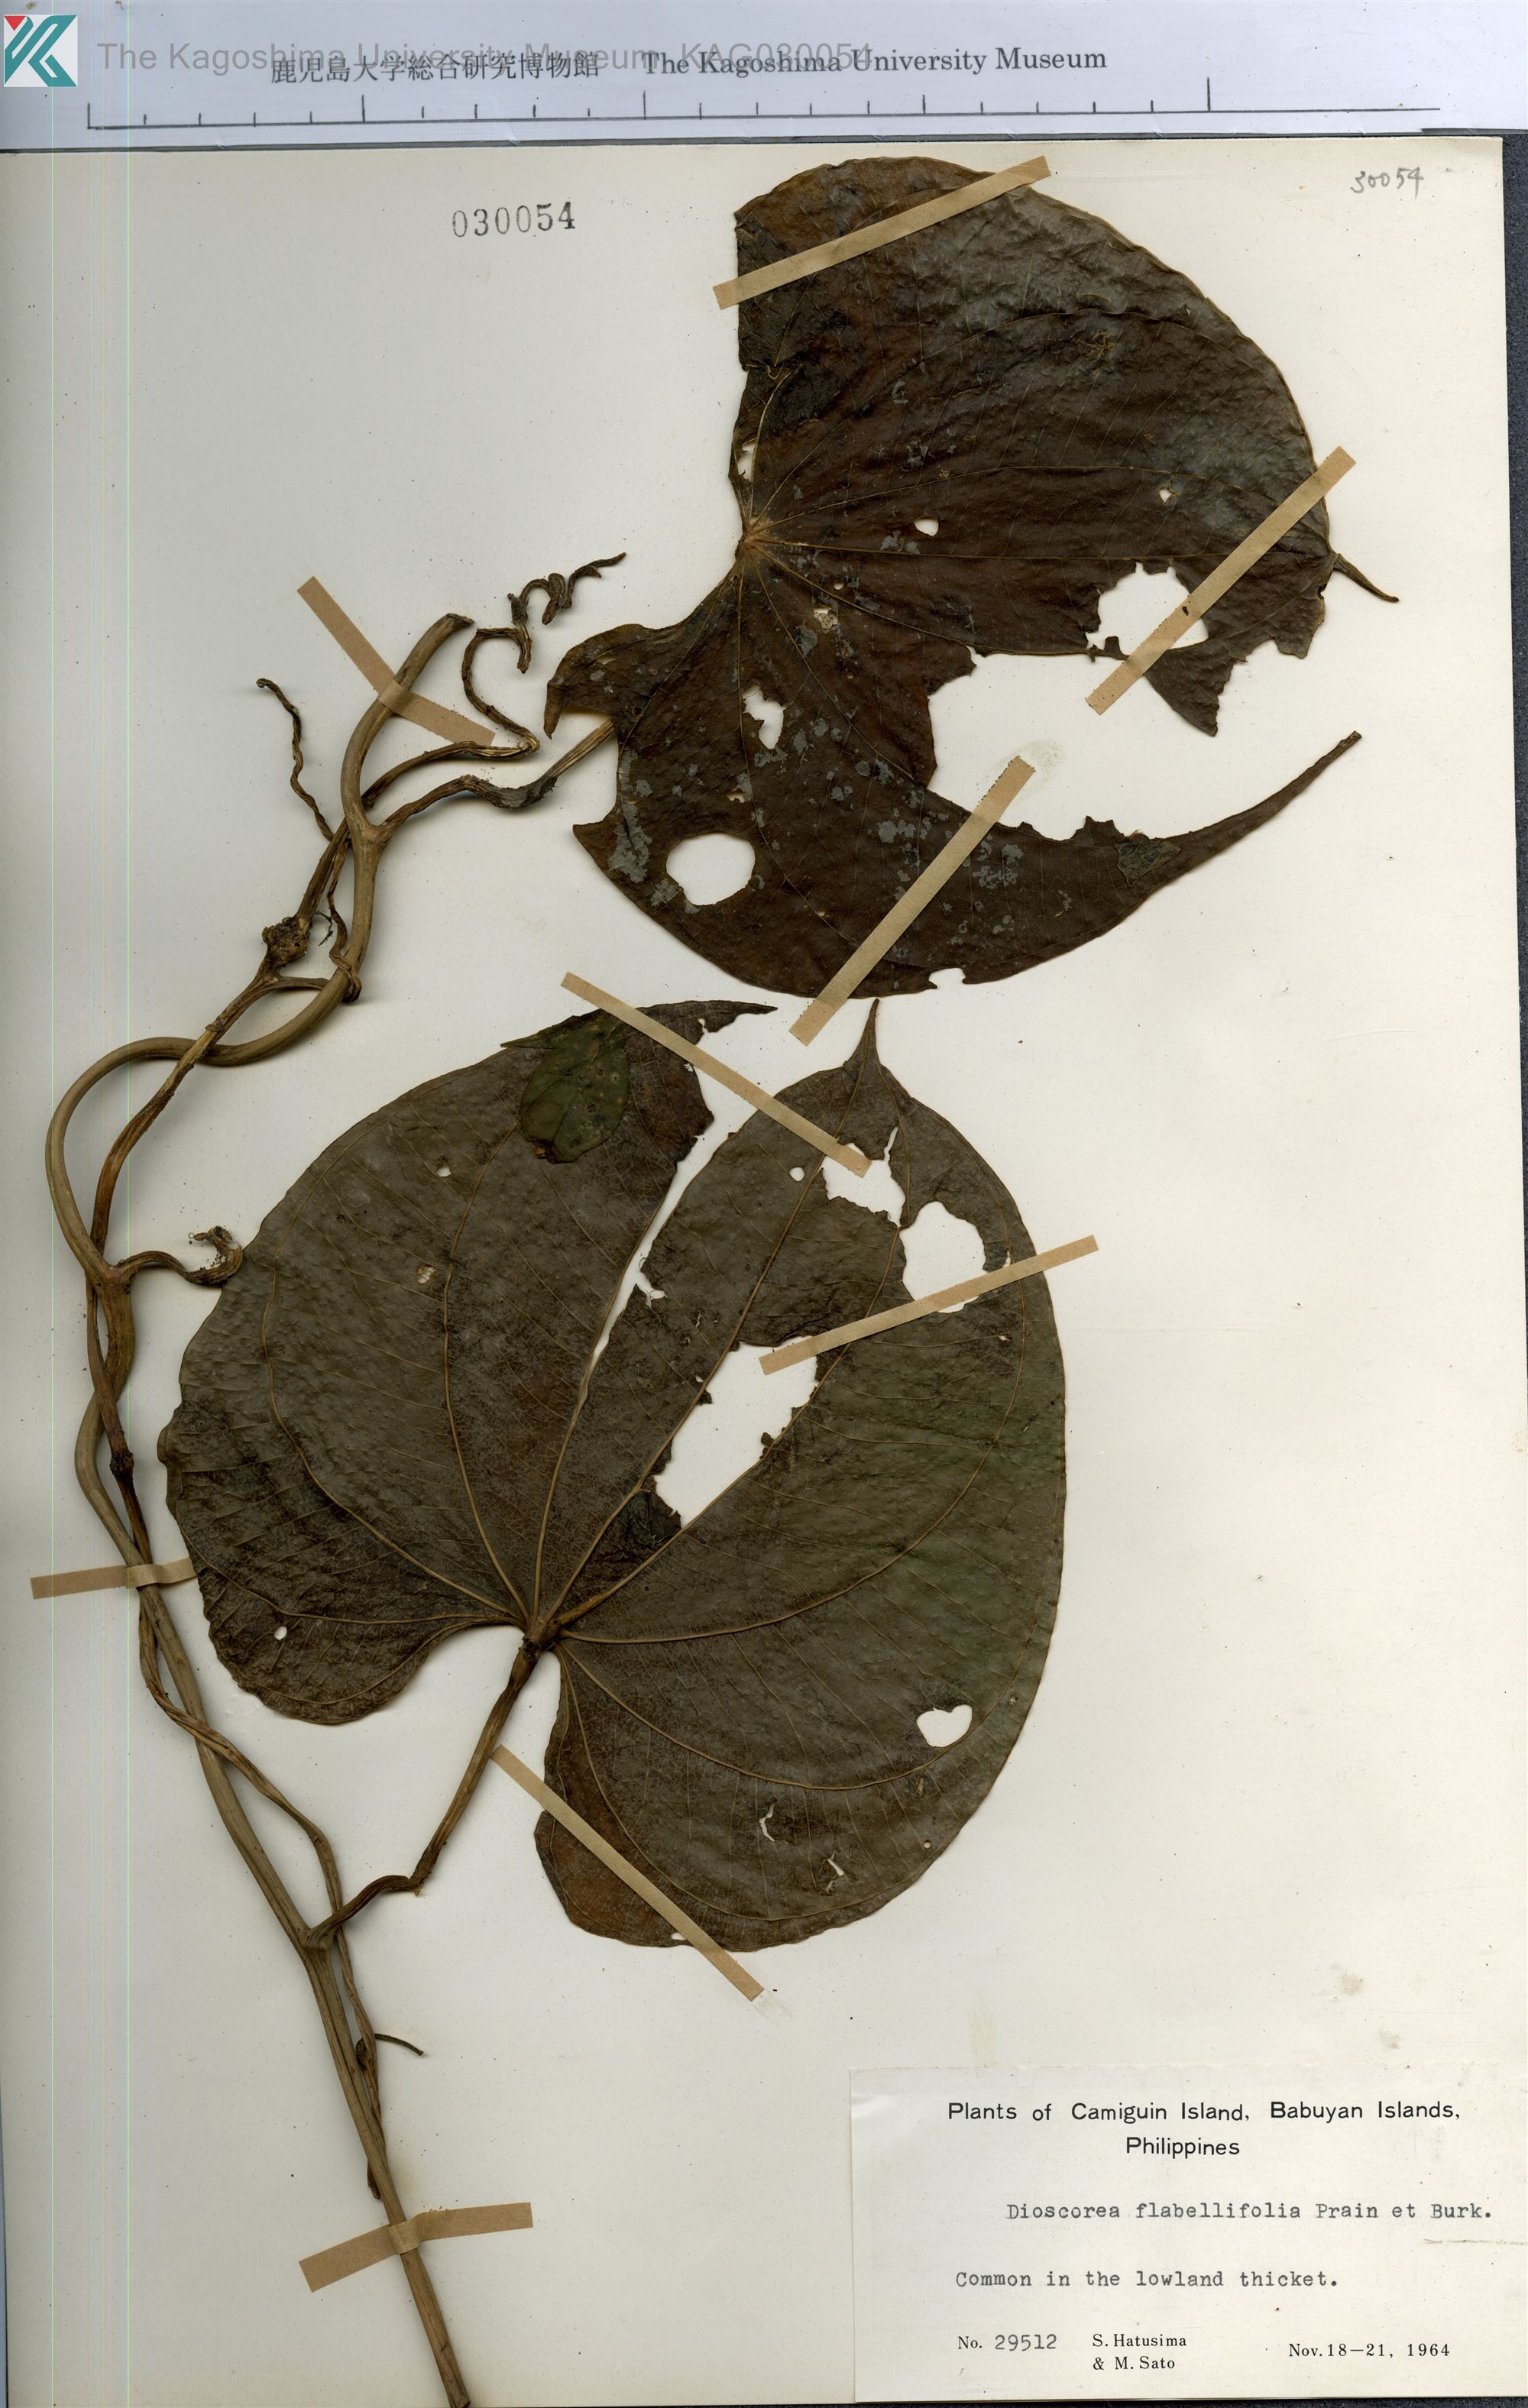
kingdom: Plantae
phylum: Tracheophyta
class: Liliopsida
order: Dioscoreales
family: Dioscoreaceae
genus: Dioscorea
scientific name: Dioscorea flabellifolia
